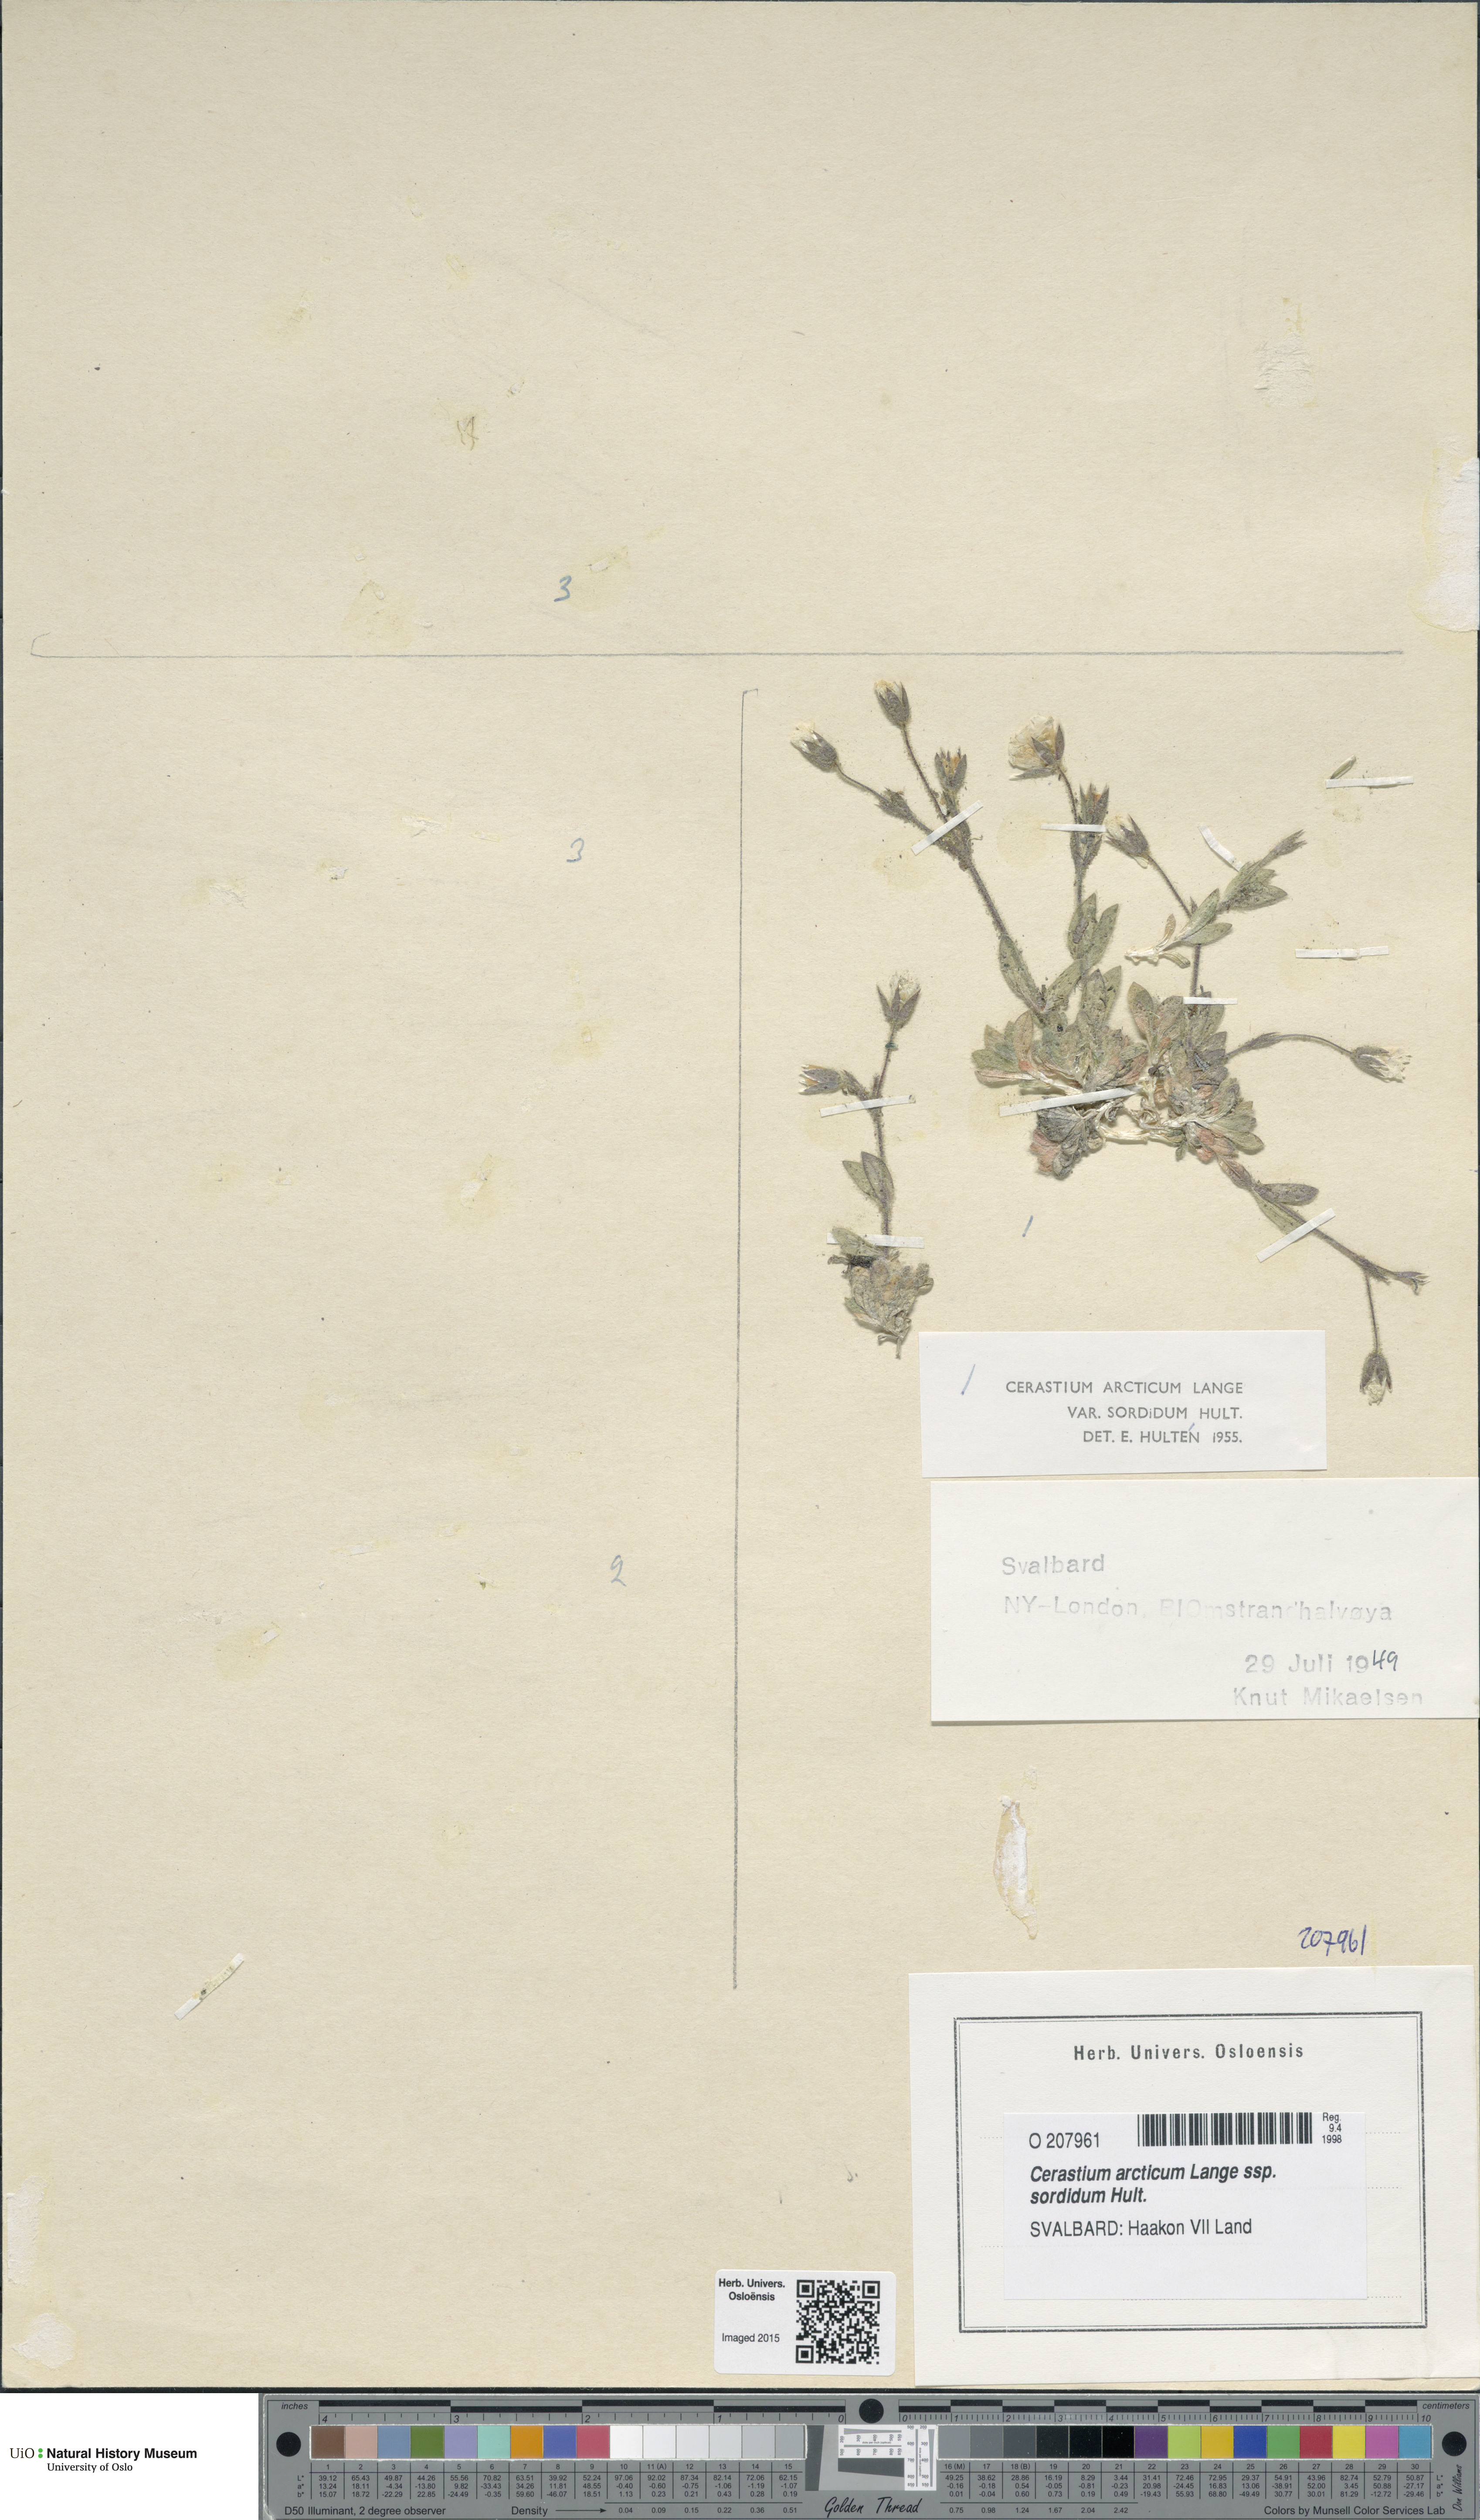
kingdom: Plantae
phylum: Tracheophyta
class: Magnoliopsida
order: Caryophyllales
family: Caryophyllaceae
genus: Cerastium
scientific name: Cerastium sordidum
